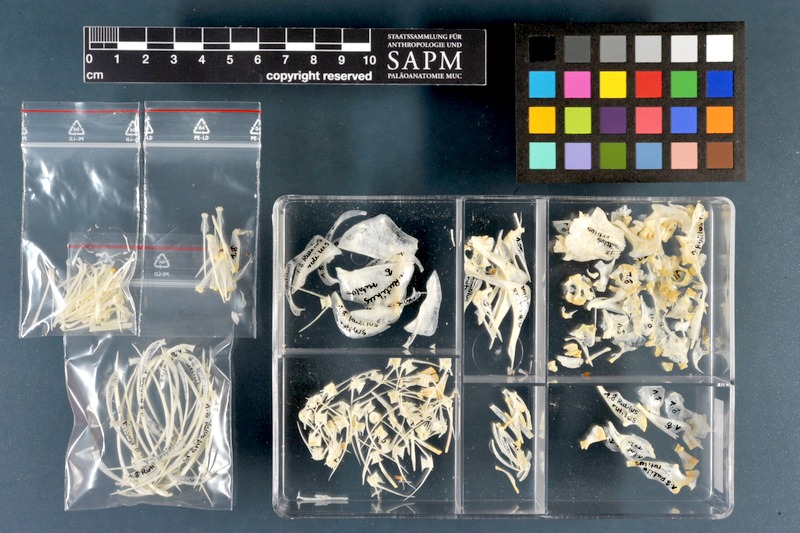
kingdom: Animalia
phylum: Chordata
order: Cypriniformes
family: Cyprinidae
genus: Rutilus
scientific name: Rutilus rutilus
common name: Roach
